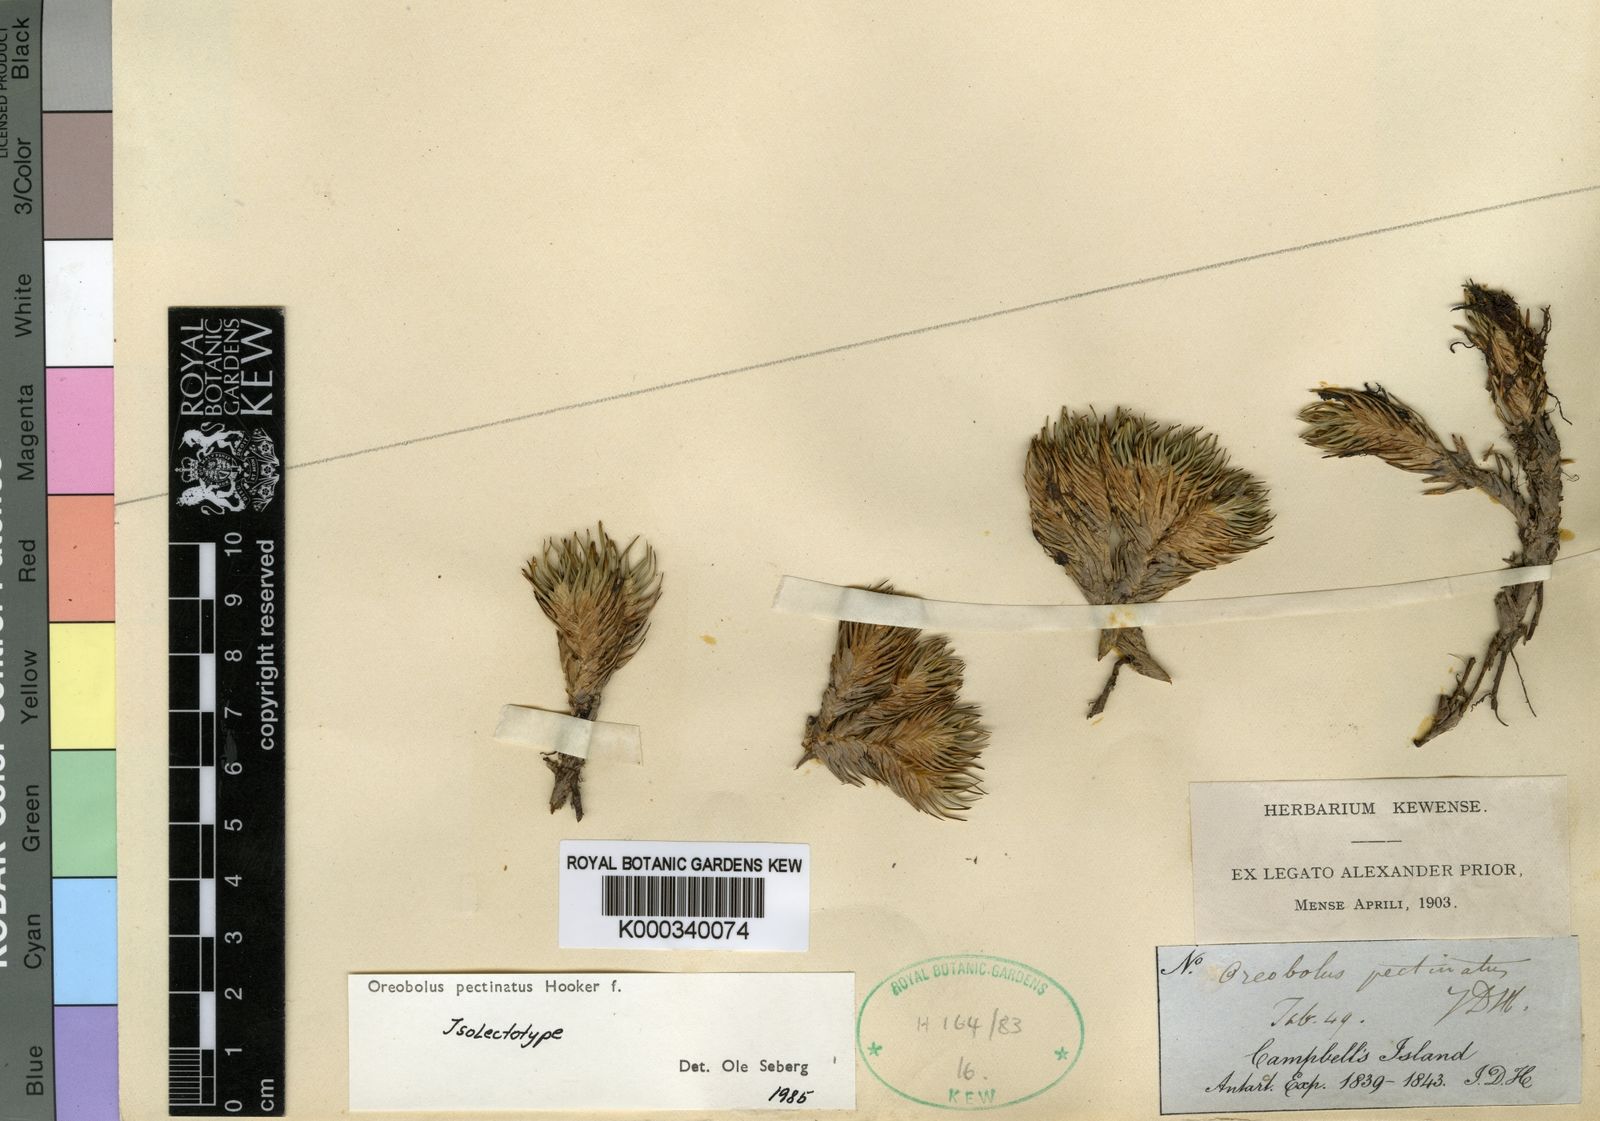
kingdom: Plantae
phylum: Tracheophyta
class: Liliopsida
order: Poales
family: Cyperaceae
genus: Oreobolus
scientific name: Oreobolus pectinatus
